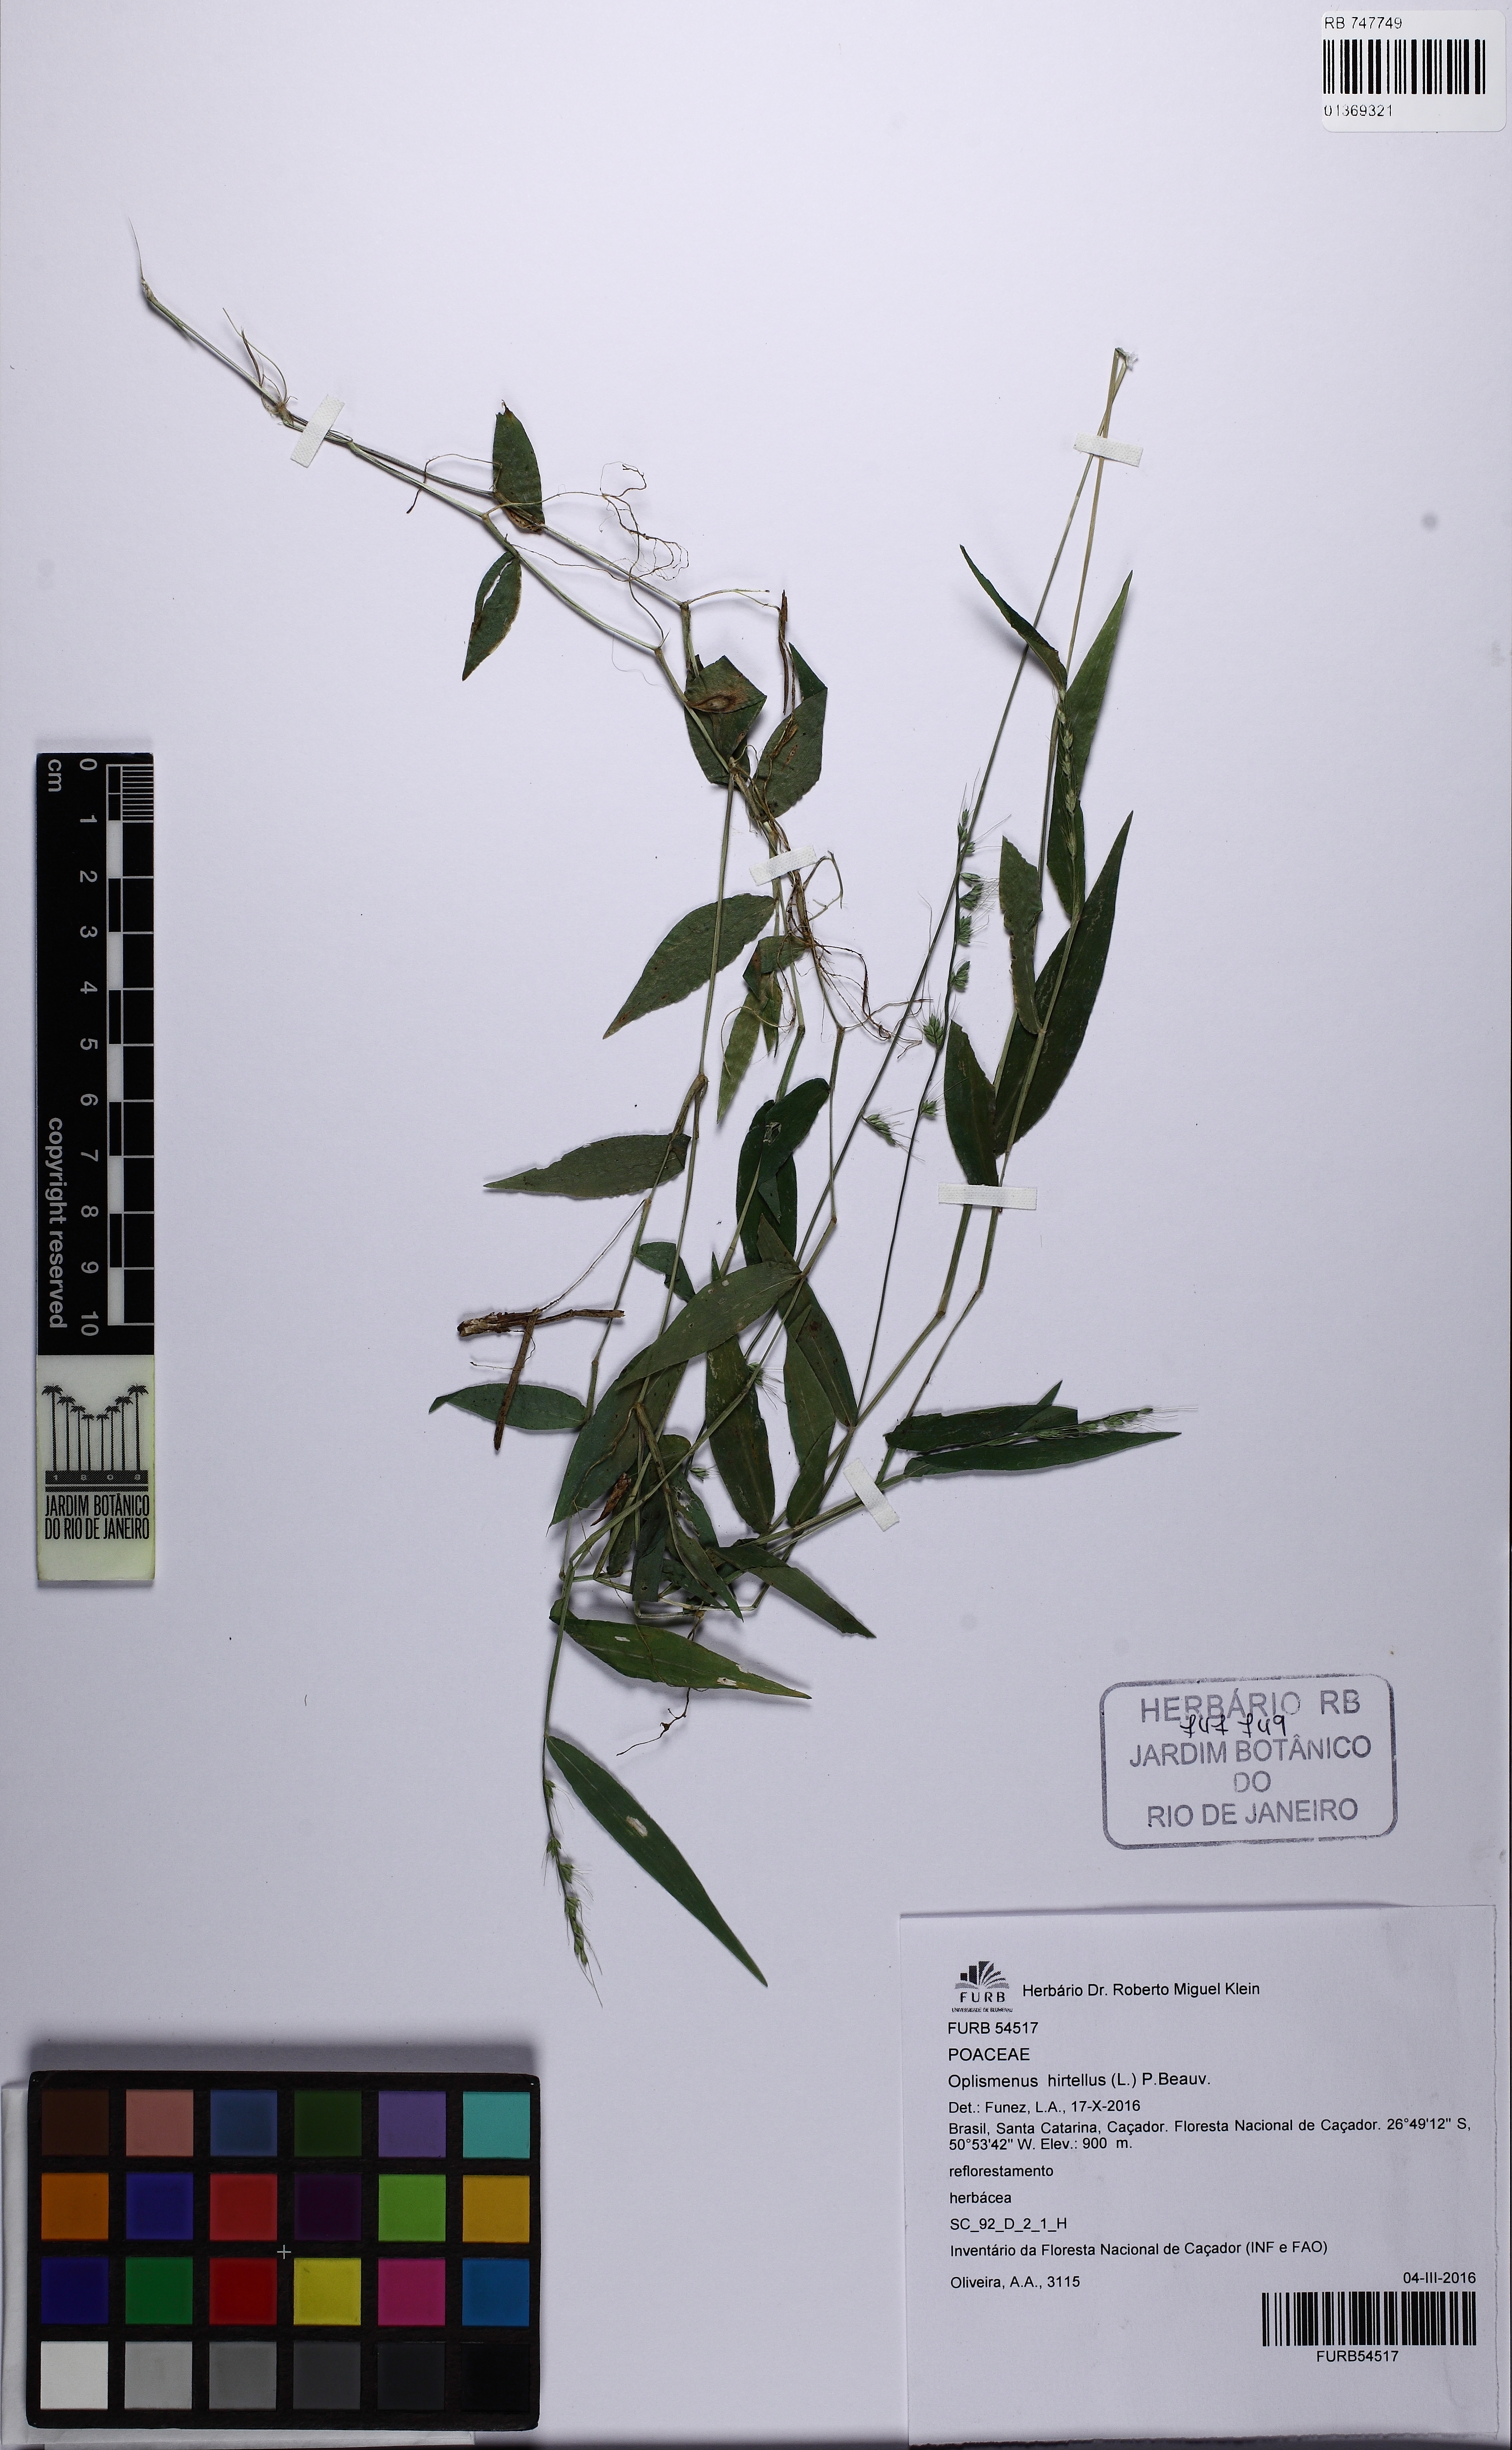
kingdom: Plantae
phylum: Tracheophyta
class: Liliopsida
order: Poales
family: Poaceae
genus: Oplismenus
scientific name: Oplismenus hirtellus
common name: Basketgrass
